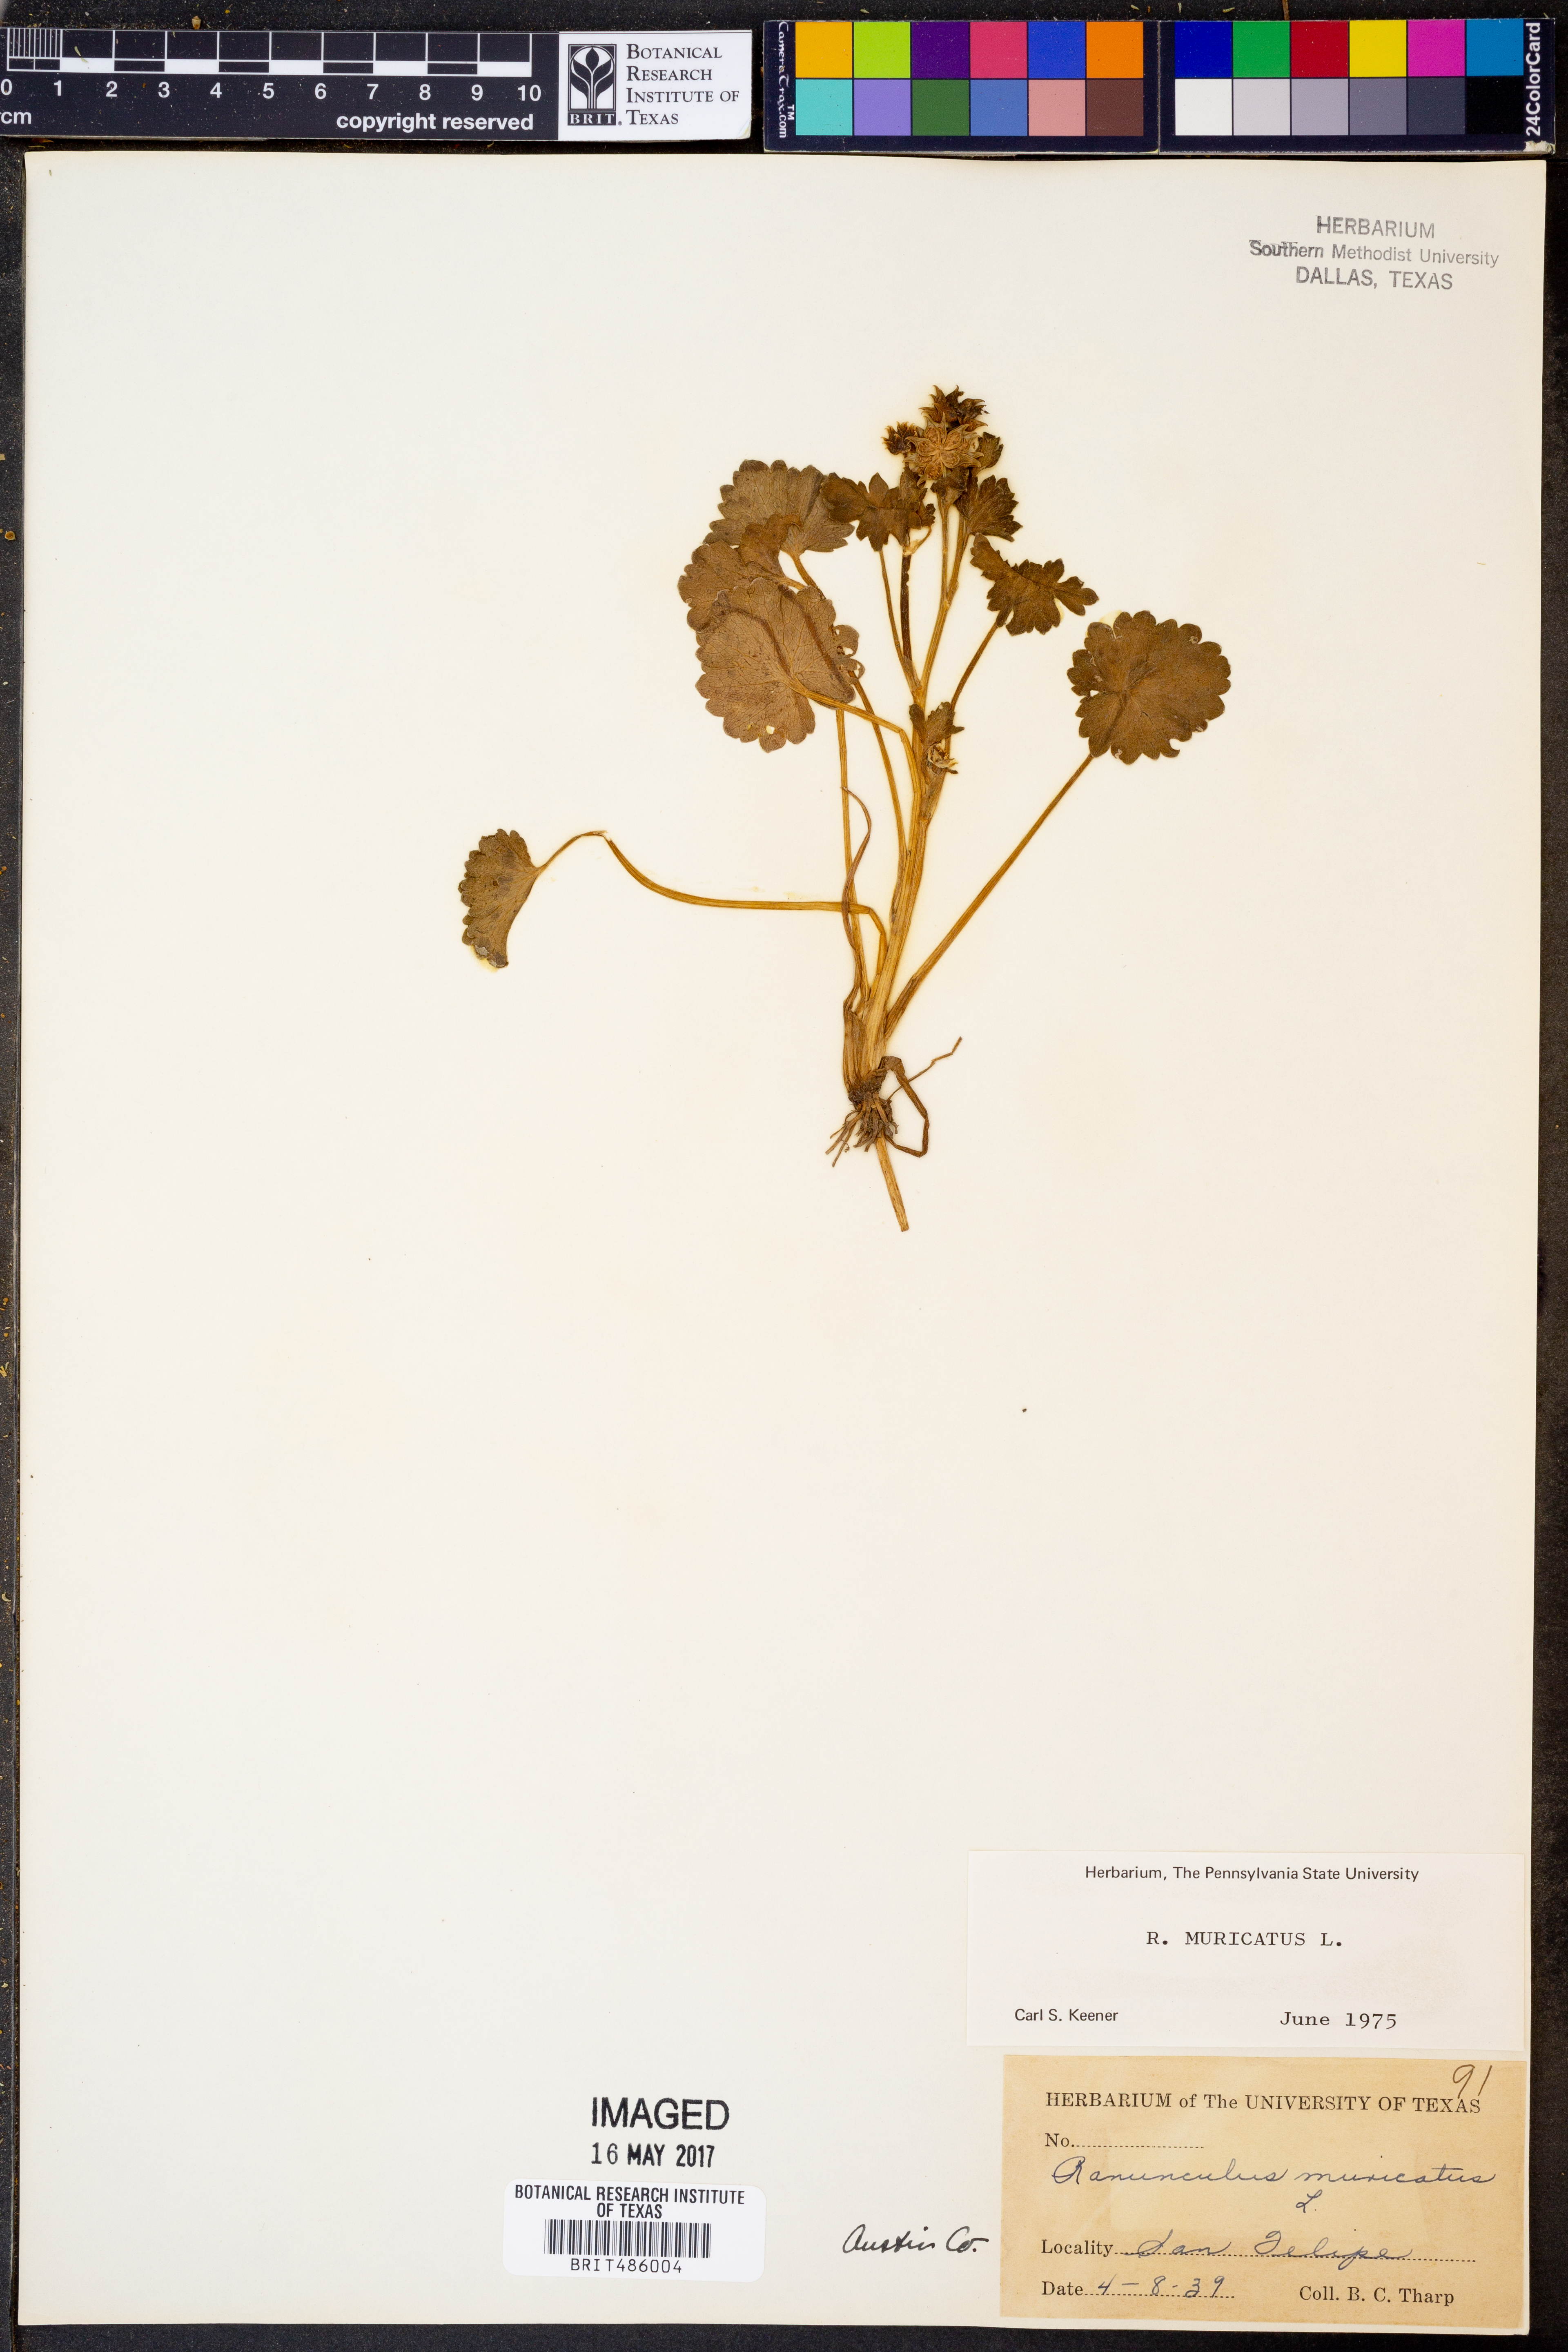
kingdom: Plantae
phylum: Tracheophyta
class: Magnoliopsida
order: Ranunculales
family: Ranunculaceae
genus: Ranunculus
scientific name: Ranunculus muricatus
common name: Rough-fruited buttercup
